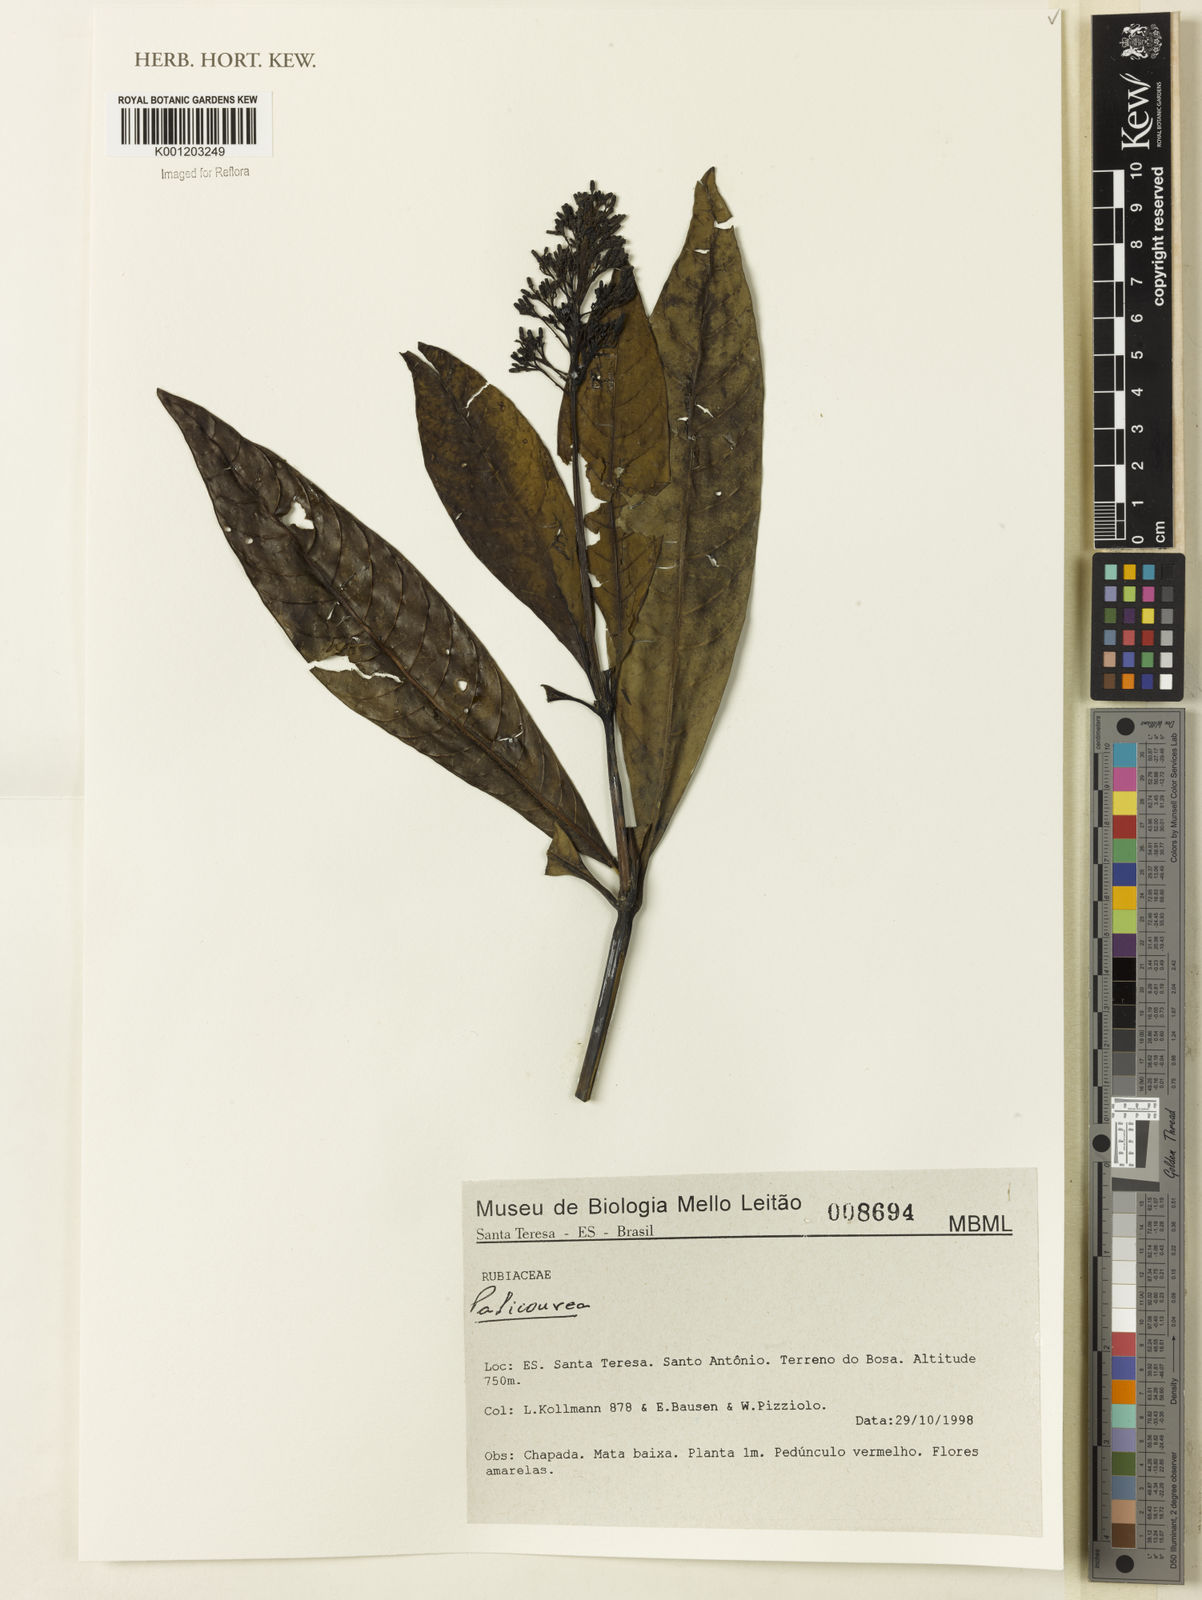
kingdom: Plantae
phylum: Tracheophyta
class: Magnoliopsida
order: Gentianales
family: Rubiaceae
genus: Palicourea
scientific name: Palicourea
